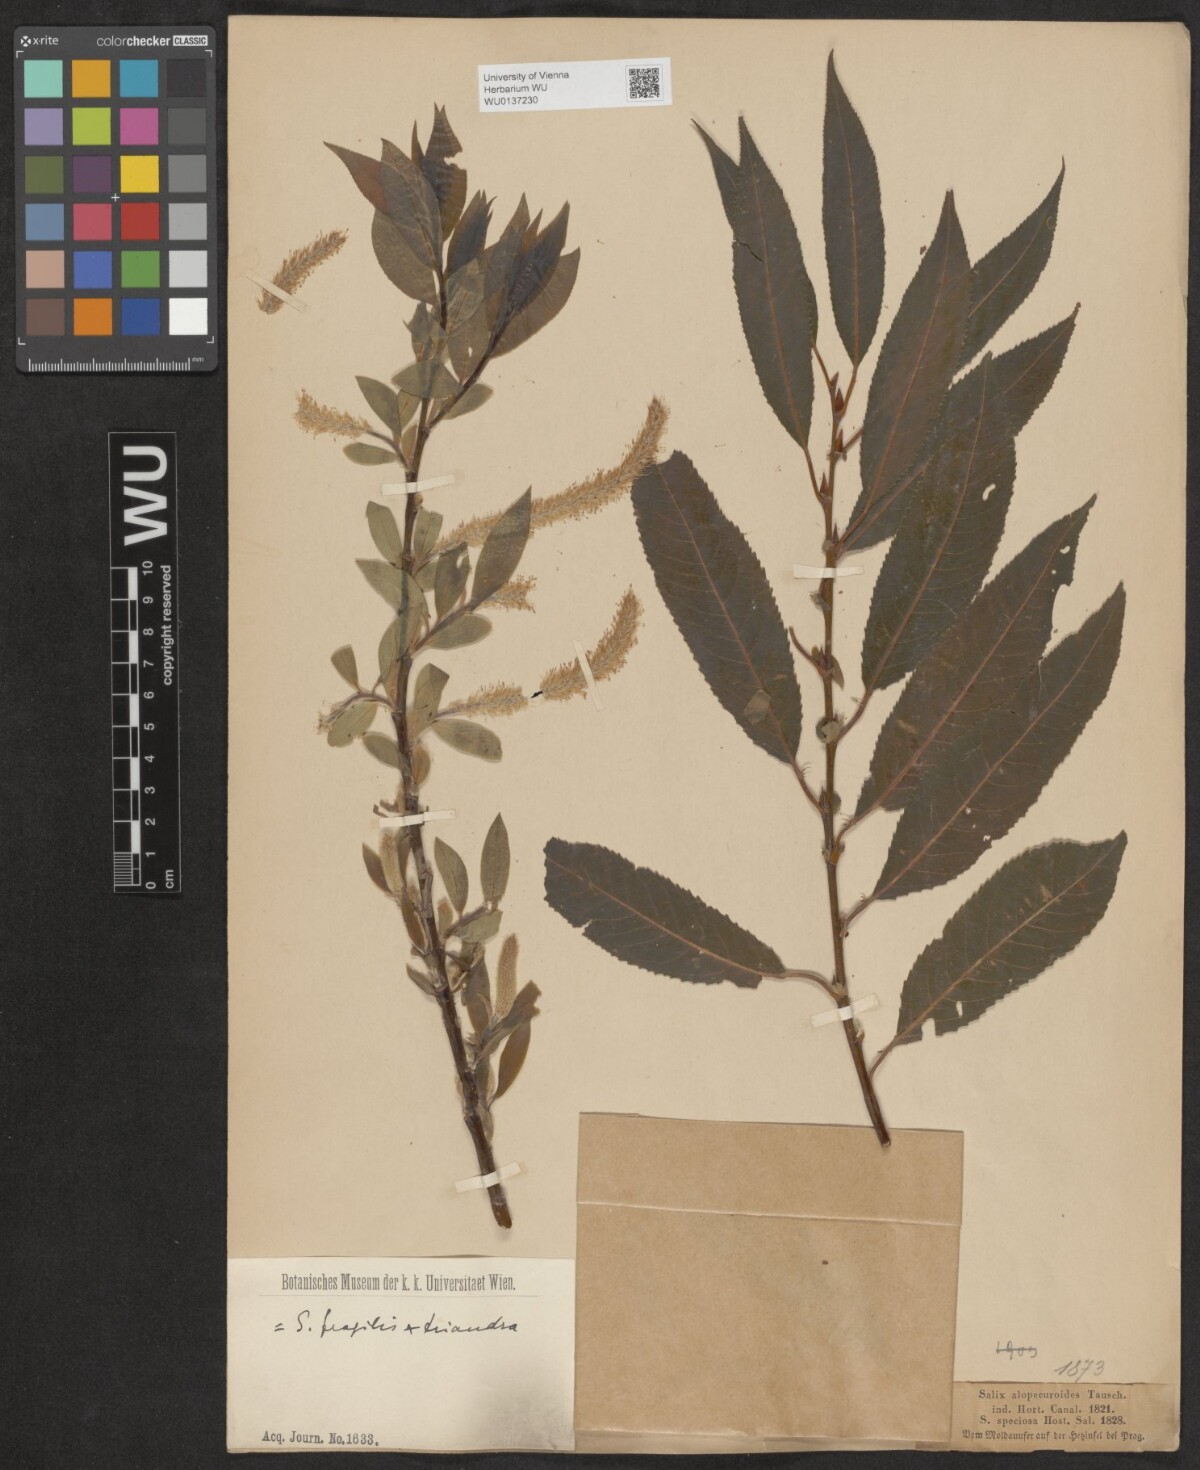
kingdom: Plantae
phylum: Tracheophyta
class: Magnoliopsida
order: Malpighiales
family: Salicaceae
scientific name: Salicaceae
